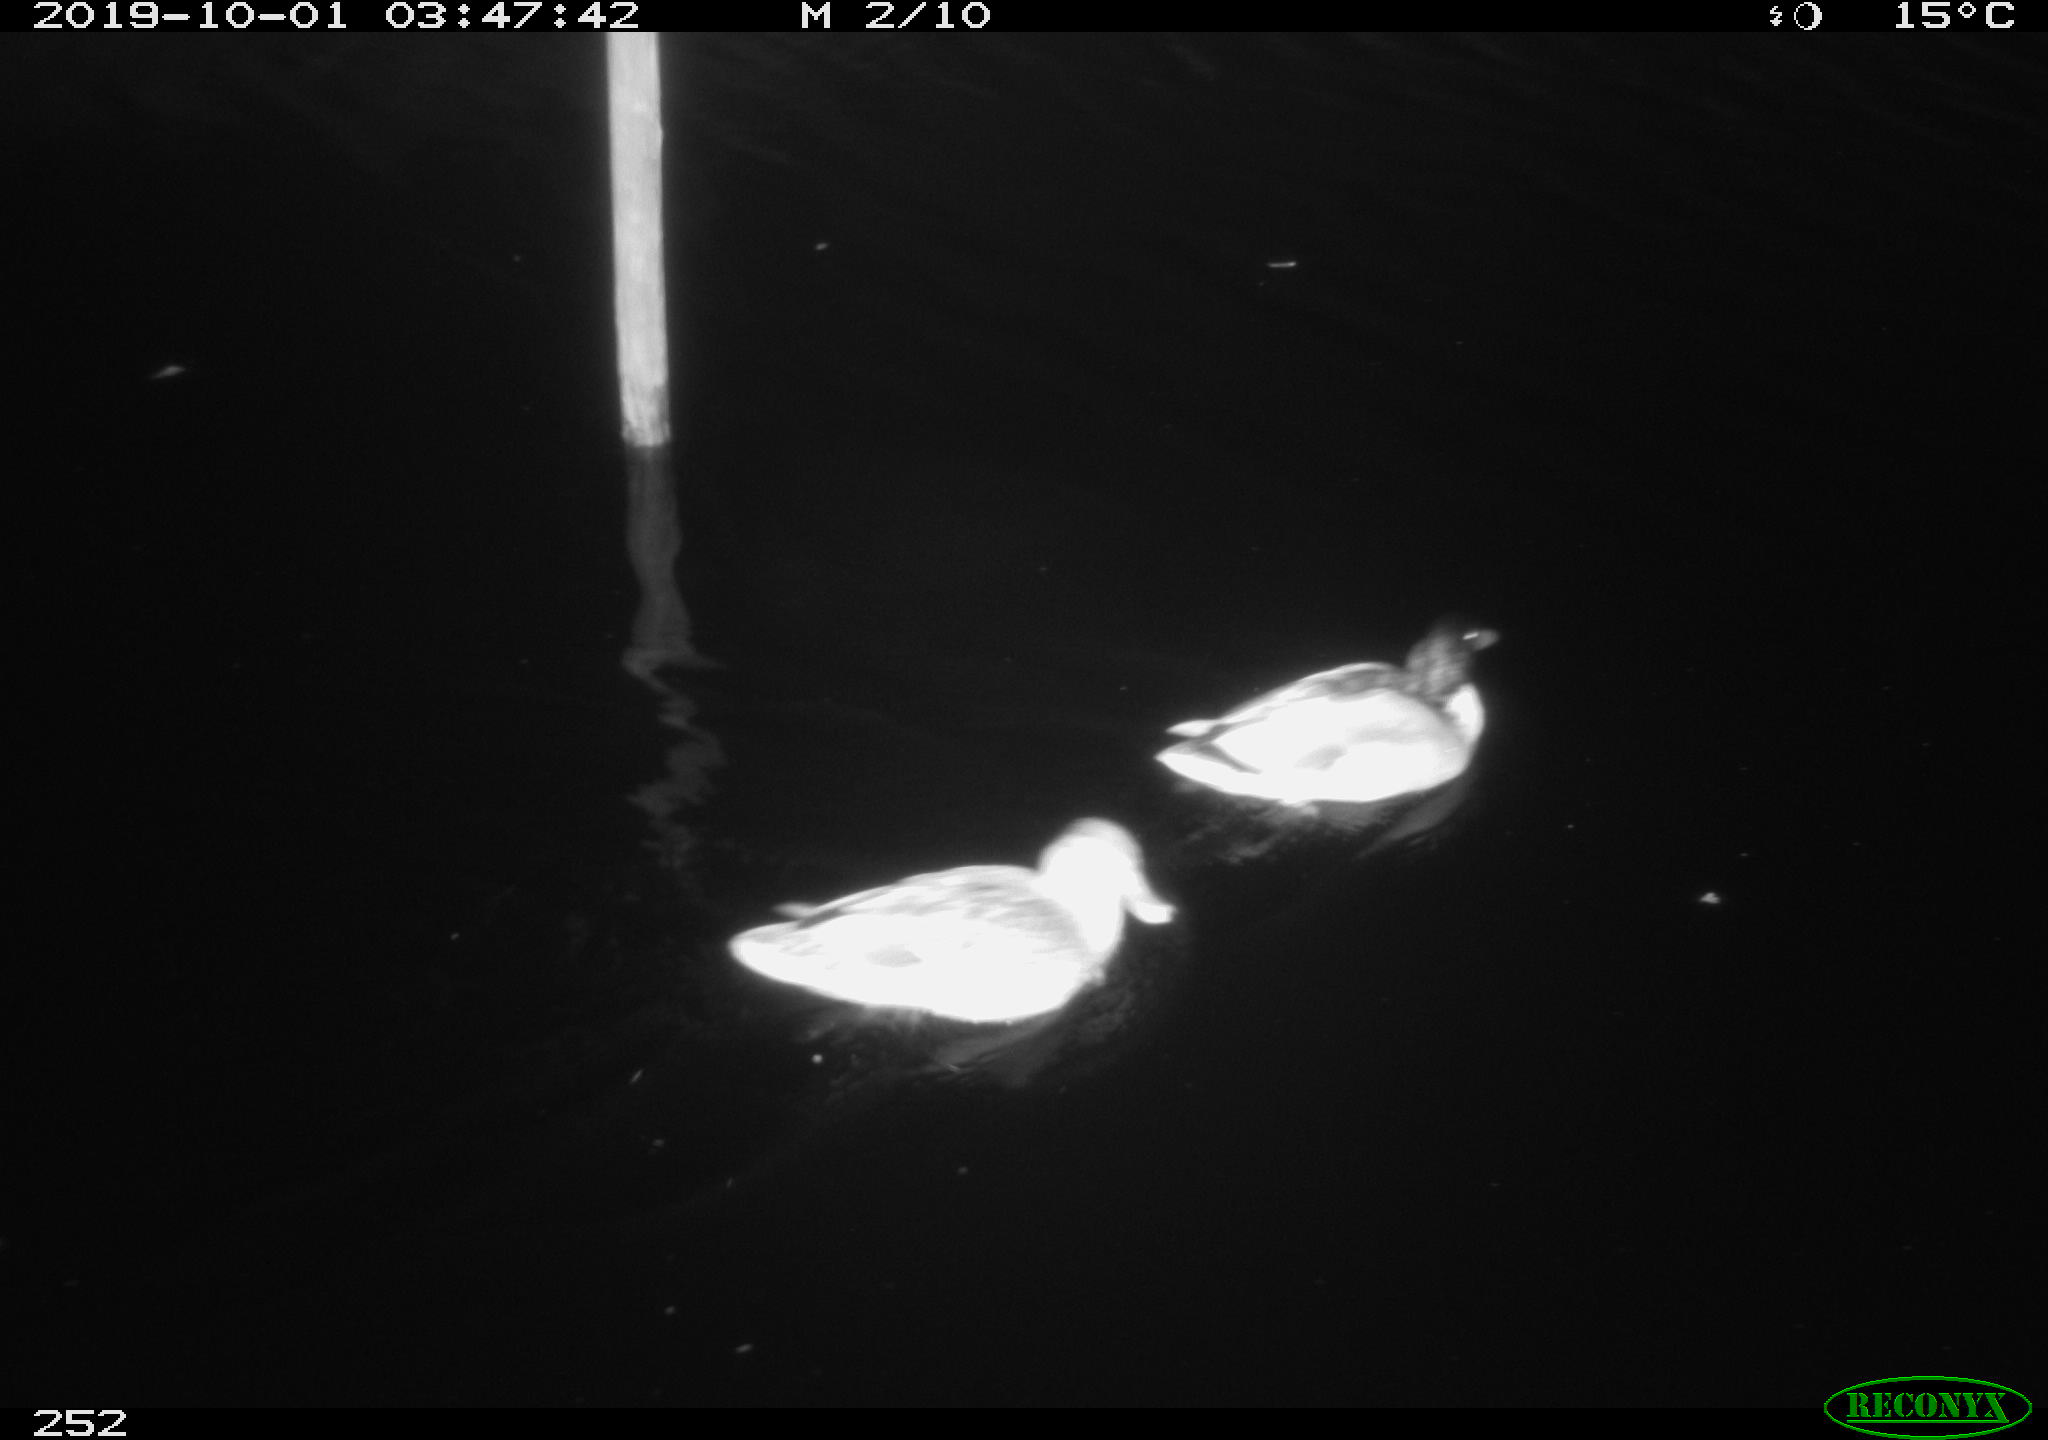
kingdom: Animalia
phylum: Chordata
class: Mammalia
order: Rodentia
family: Cricetidae
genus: Ondatra
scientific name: Ondatra zibethicus
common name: Muskrat
